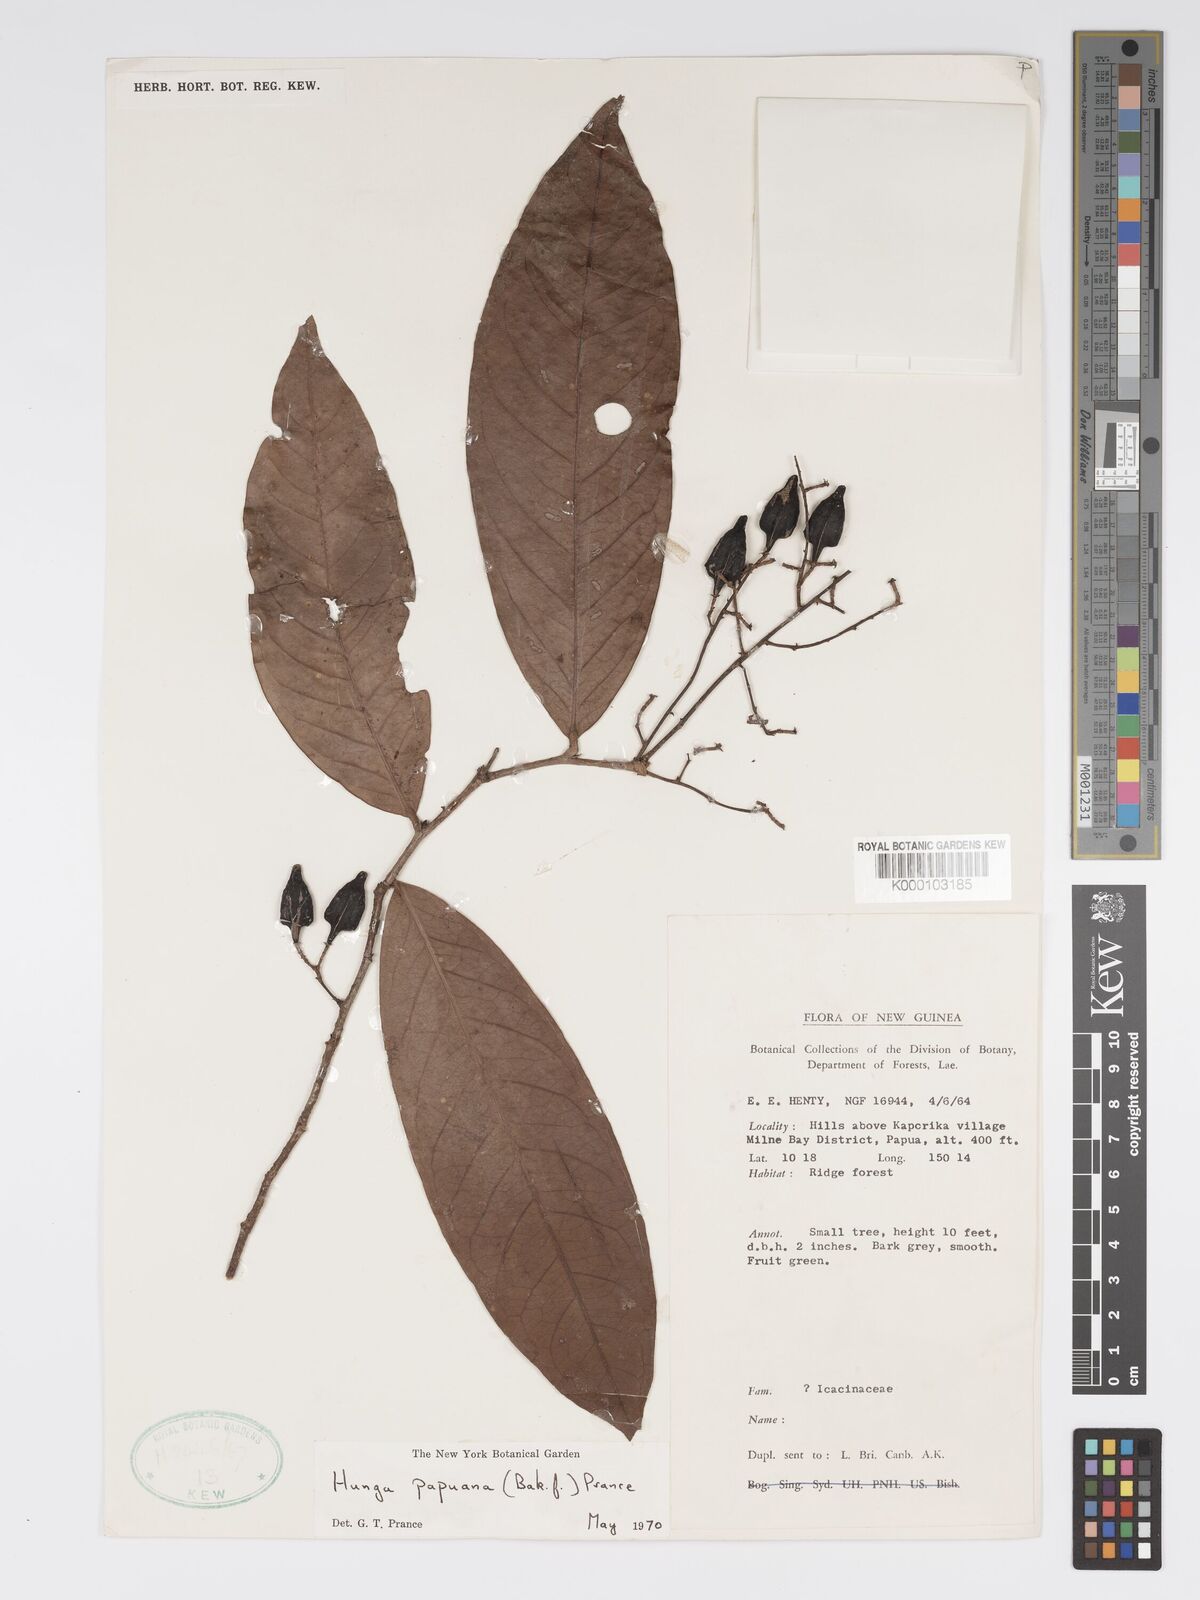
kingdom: Plantae
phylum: Tracheophyta
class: Magnoliopsida
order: Malpighiales
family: Chrysobalanaceae
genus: Hunga
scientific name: Hunga papuana
